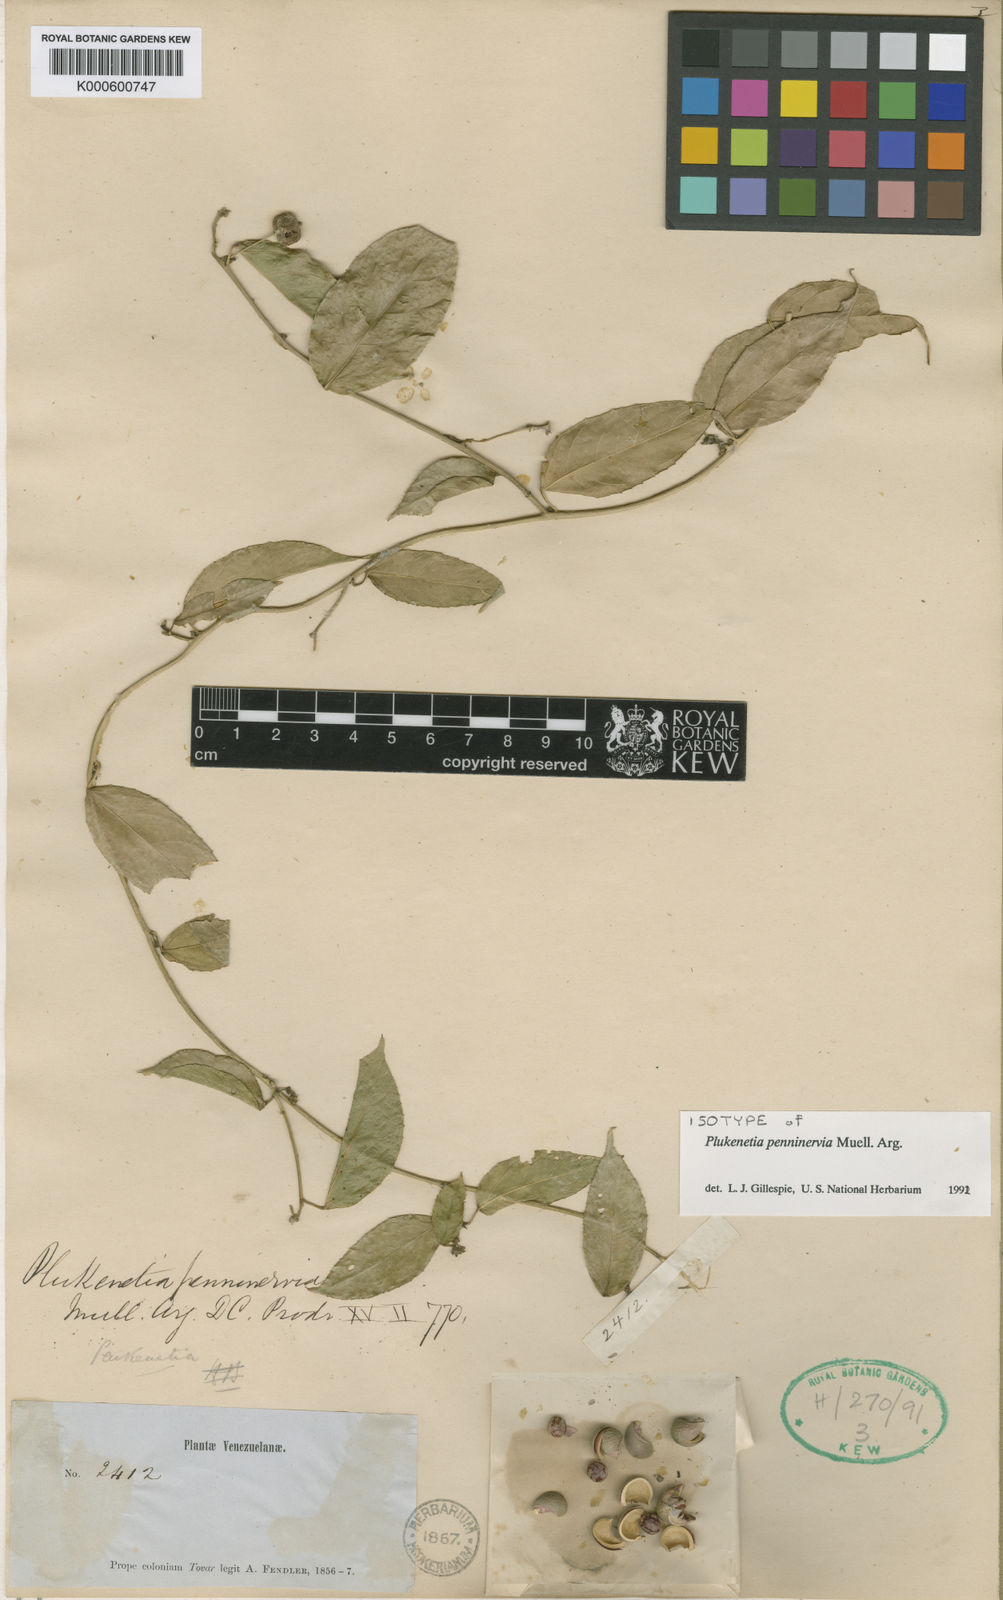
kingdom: Plantae
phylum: Tracheophyta
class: Magnoliopsida
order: Malpighiales
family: Euphorbiaceae
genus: Plukenetia
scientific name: Plukenetia
